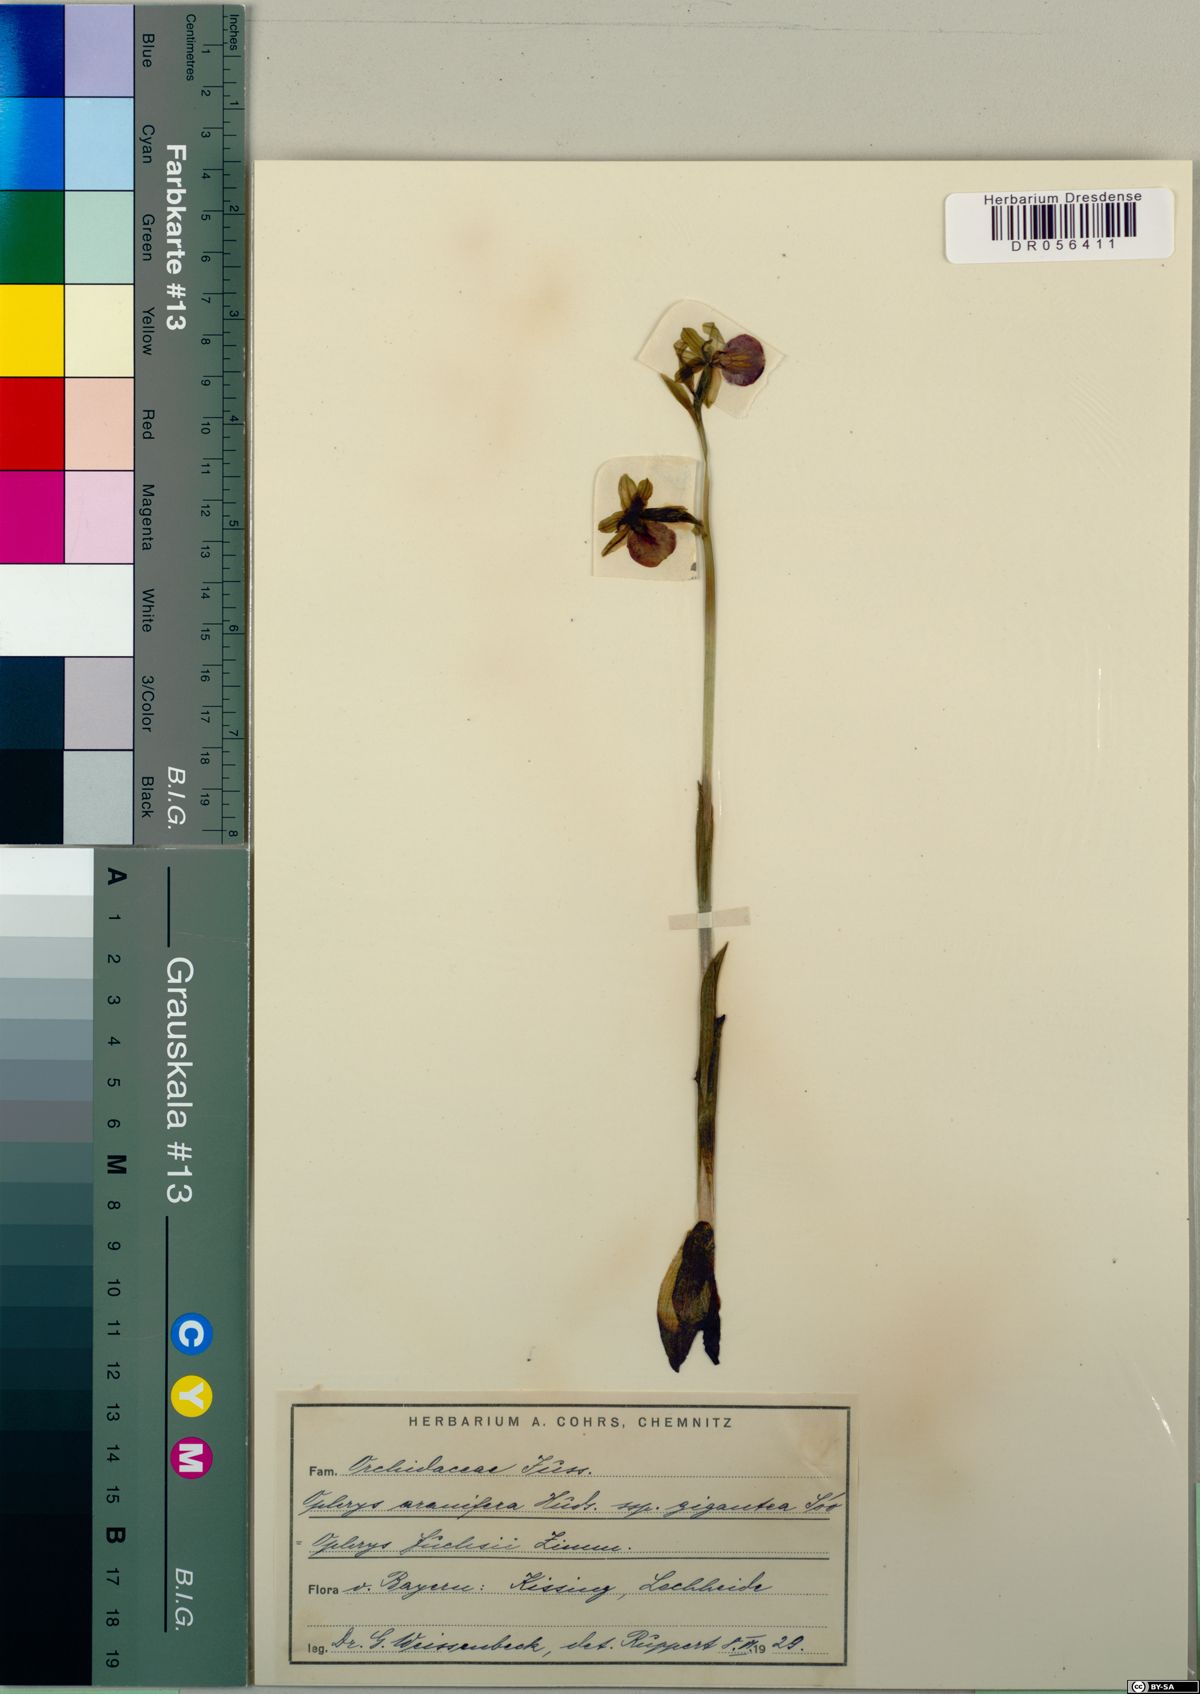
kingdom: Plantae
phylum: Tracheophyta
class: Liliopsida
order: Asparagales
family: Orchidaceae
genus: Ophrys
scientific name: Ophrys sphegodes
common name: Early spider-orchid
